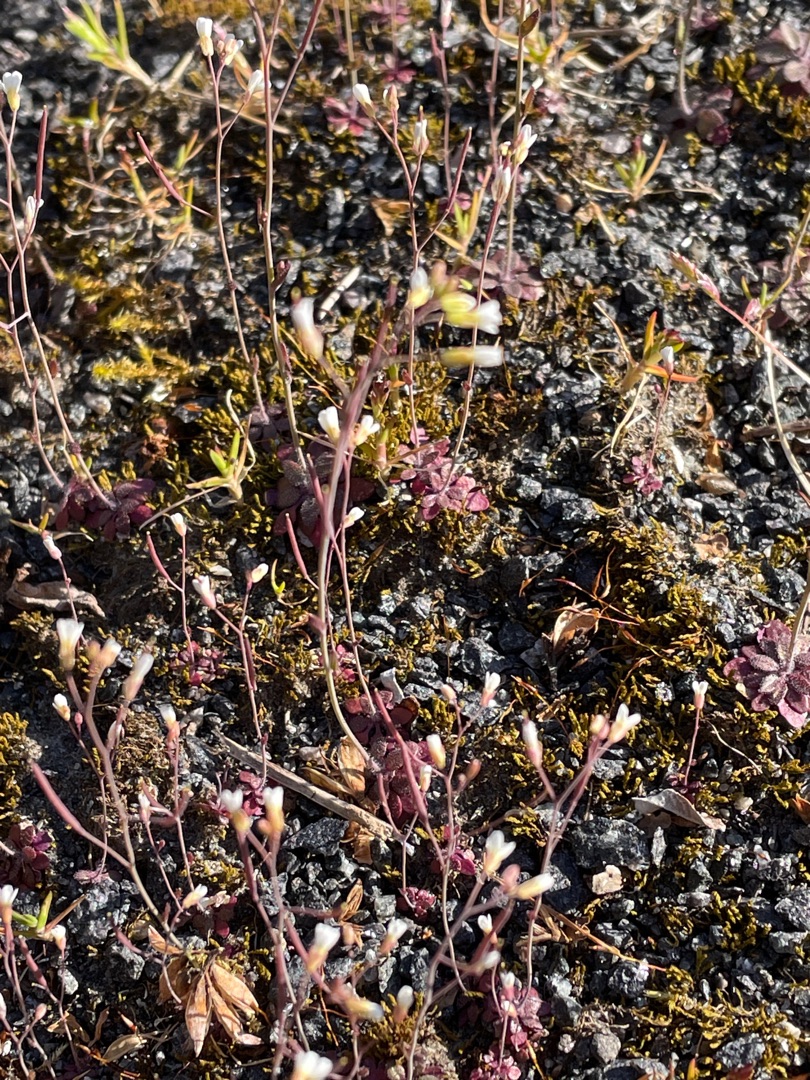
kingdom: Plantae
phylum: Tracheophyta
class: Magnoliopsida
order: Brassicales
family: Brassicaceae
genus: Arabidopsis
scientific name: Arabidopsis thaliana
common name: Almindelig gåsemad
